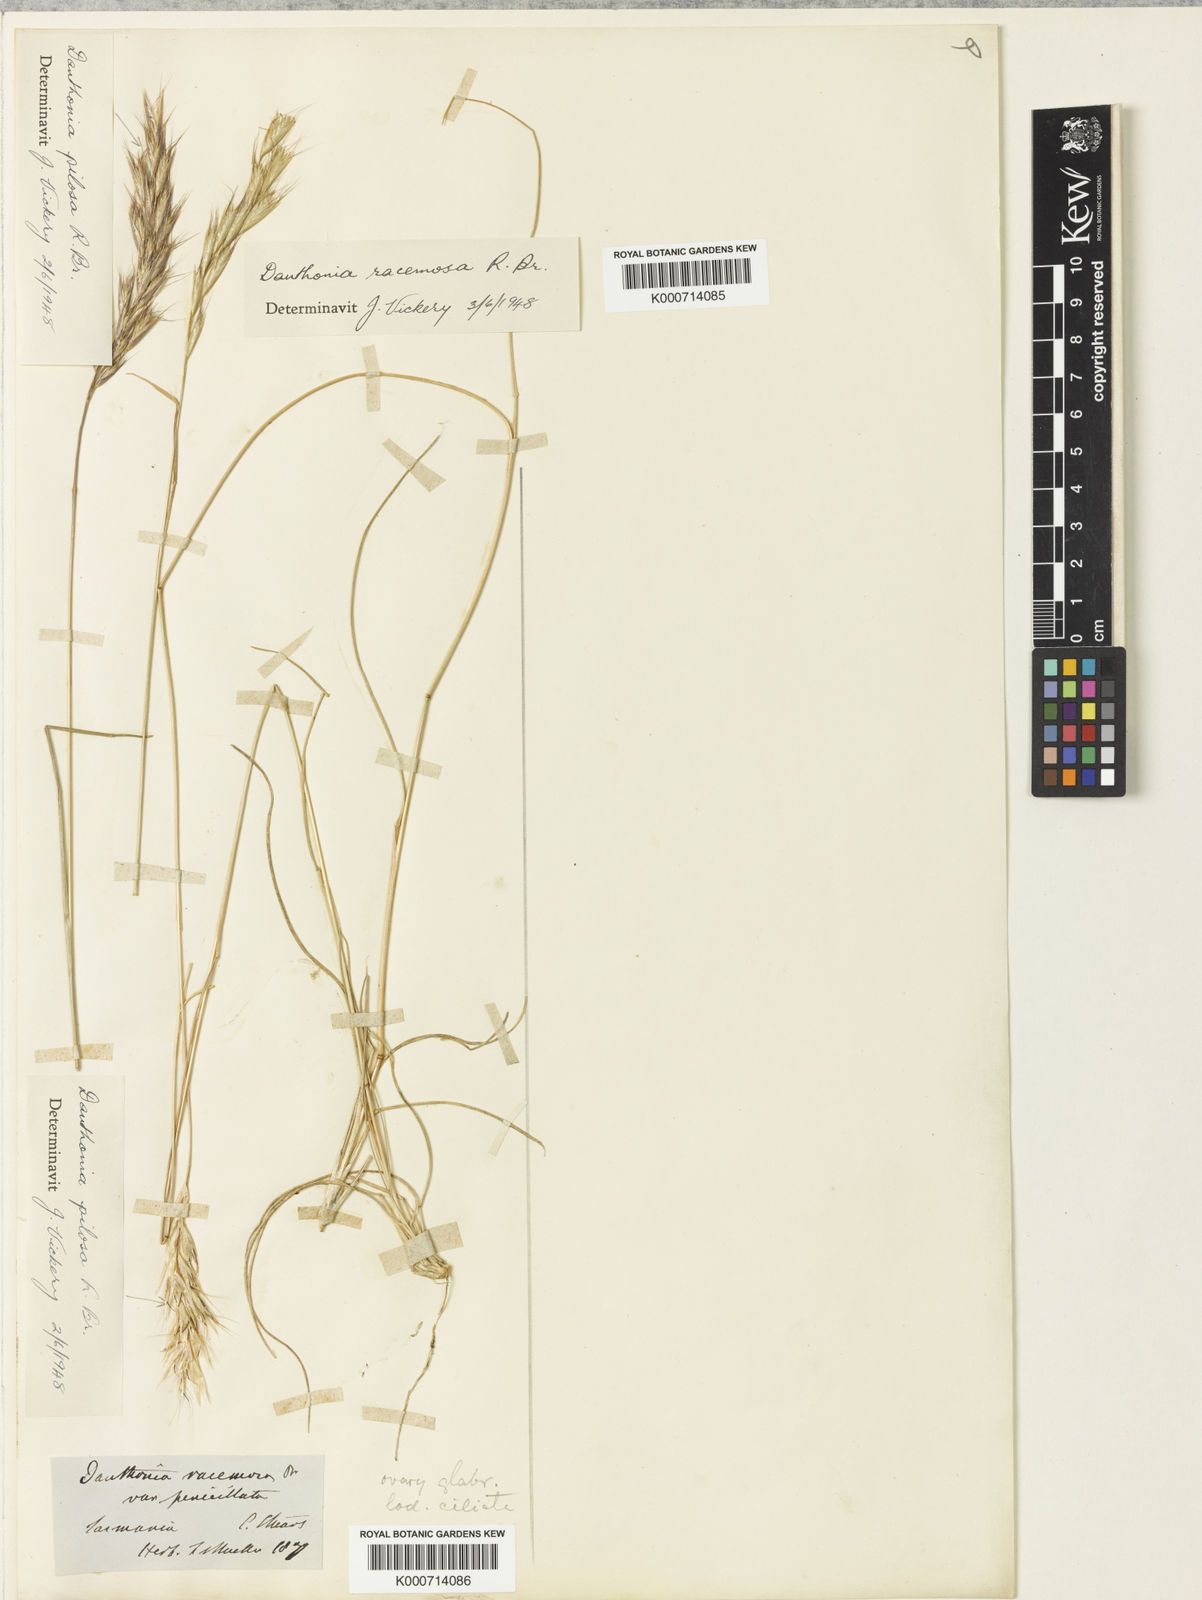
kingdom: Plantae
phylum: Tracheophyta
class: Liliopsida
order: Poales
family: Poaceae
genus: Rytidosperma
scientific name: Rytidosperma racemosum
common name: Wallaby-grass
